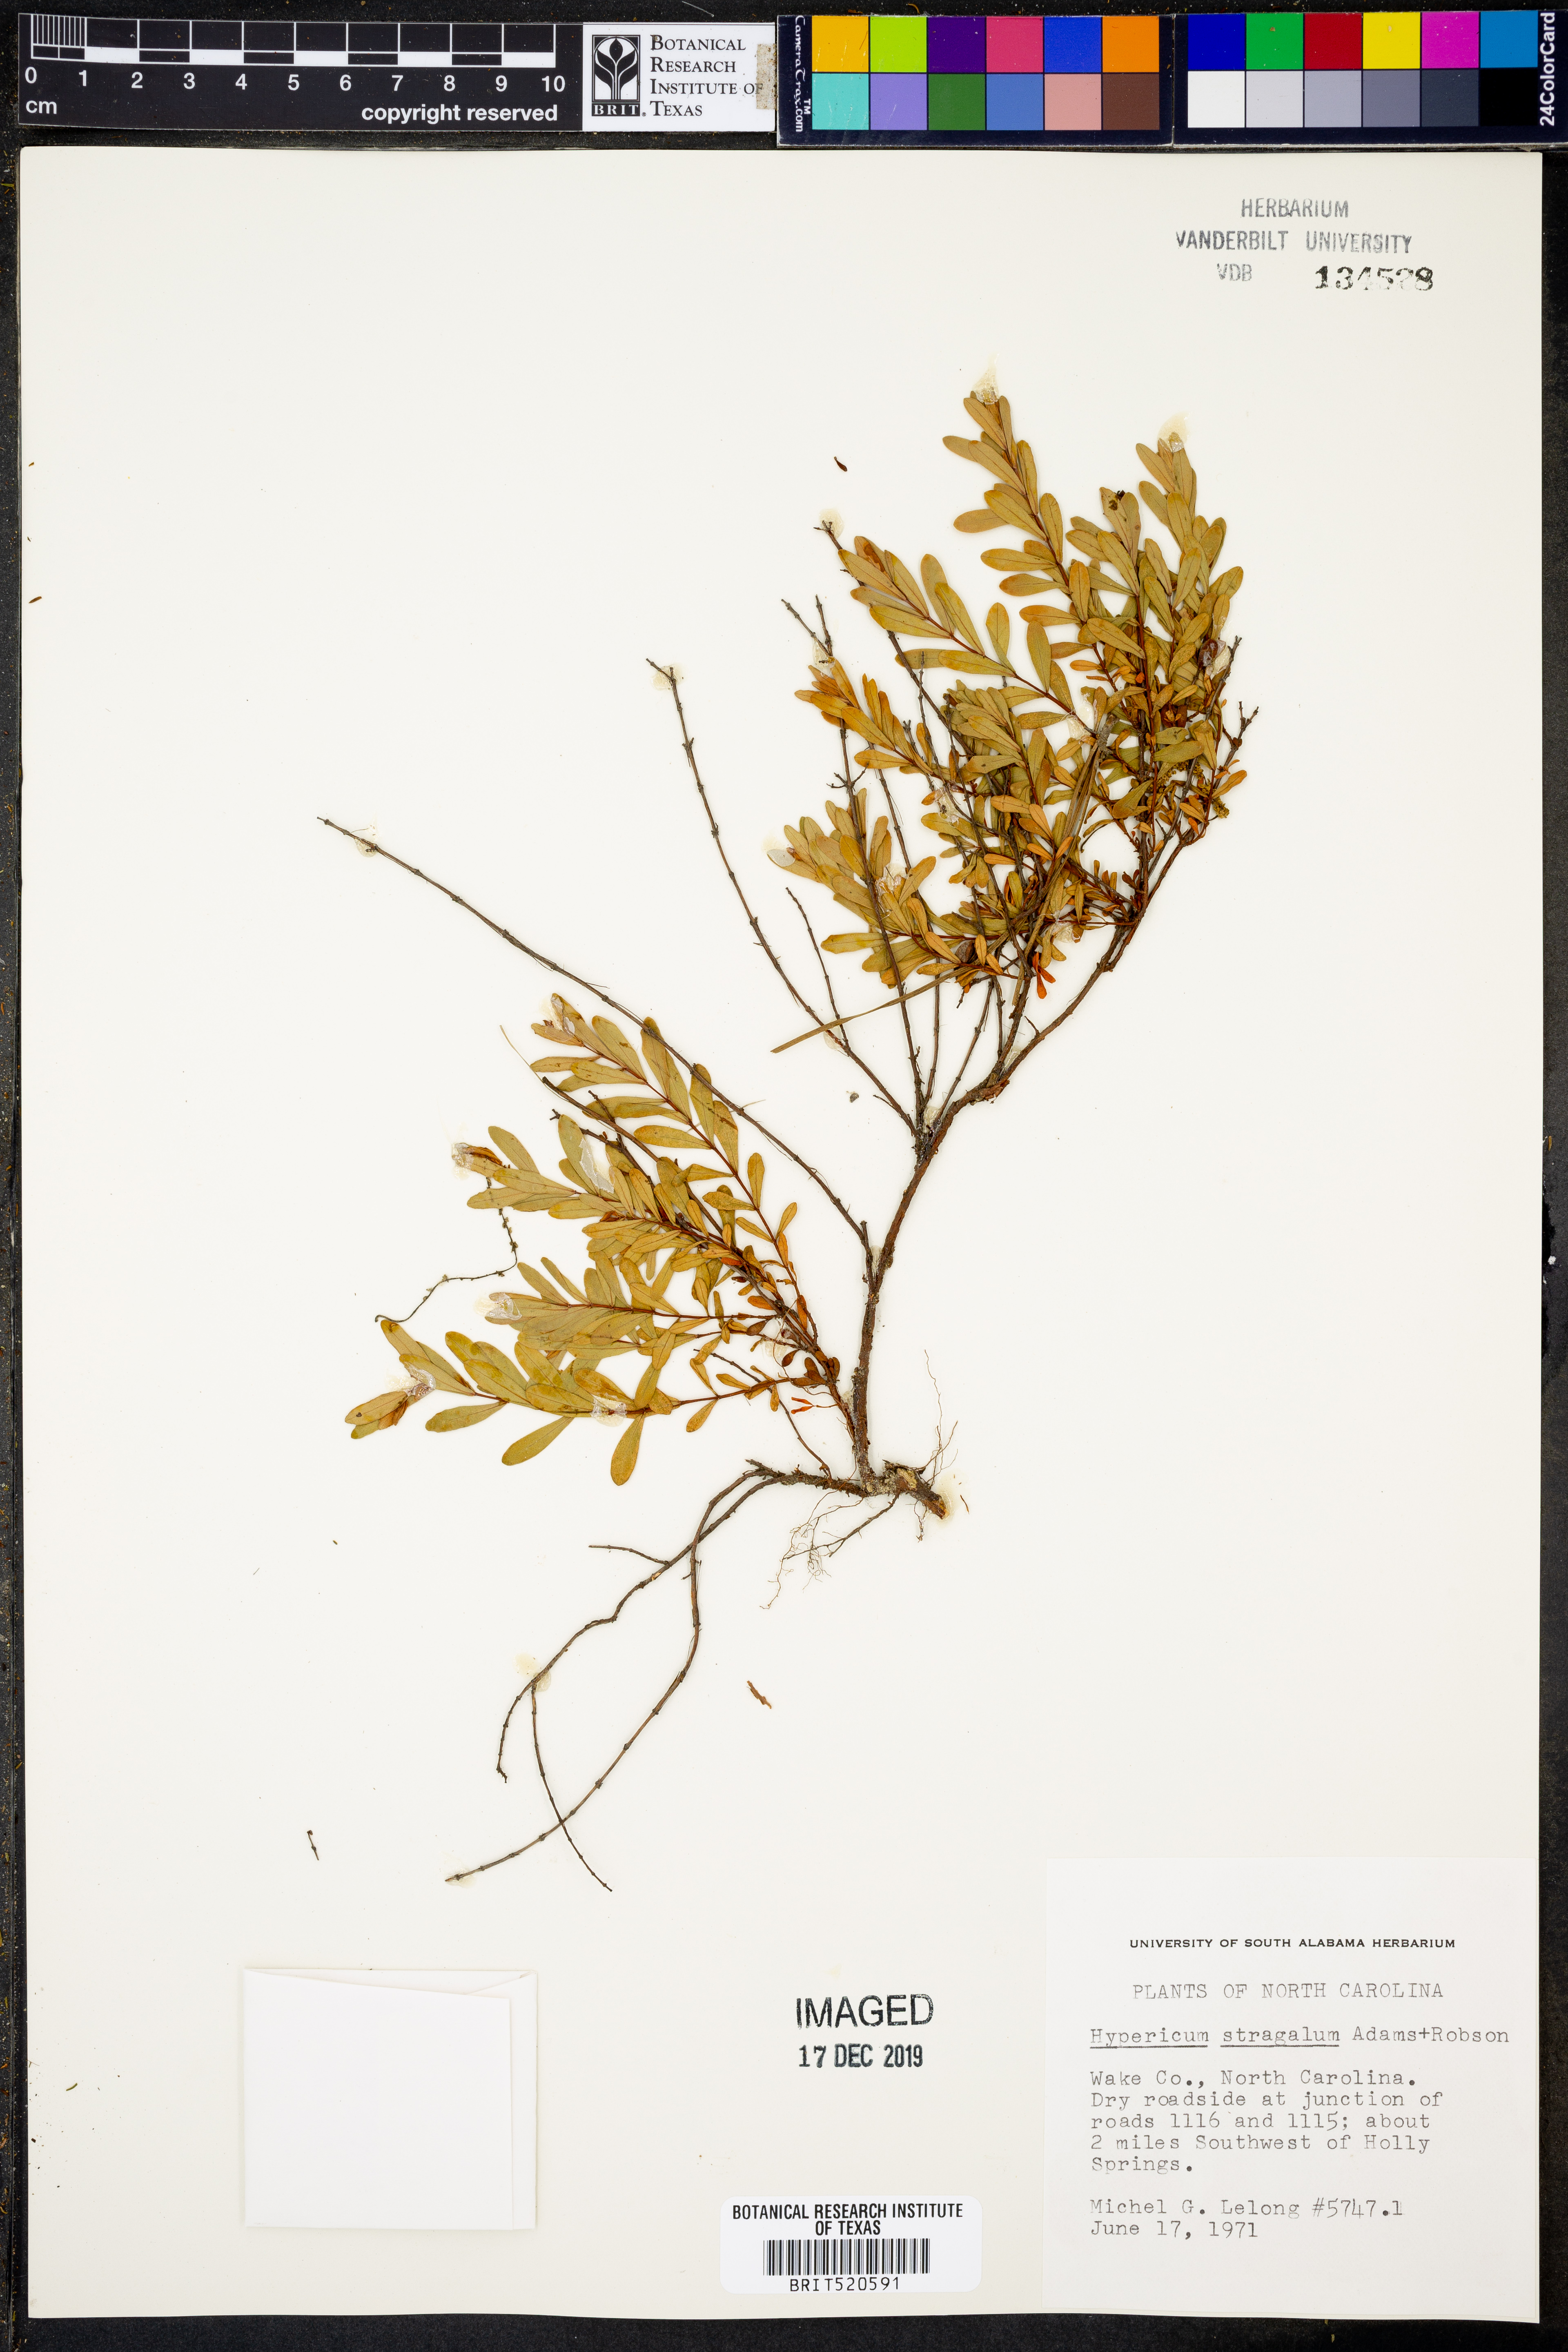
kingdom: Plantae
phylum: Tracheophyta
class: Magnoliopsida
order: Malpighiales
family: Hypericaceae
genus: Hypericum
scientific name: Hypericum hypericoides
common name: St. andrew's cross
